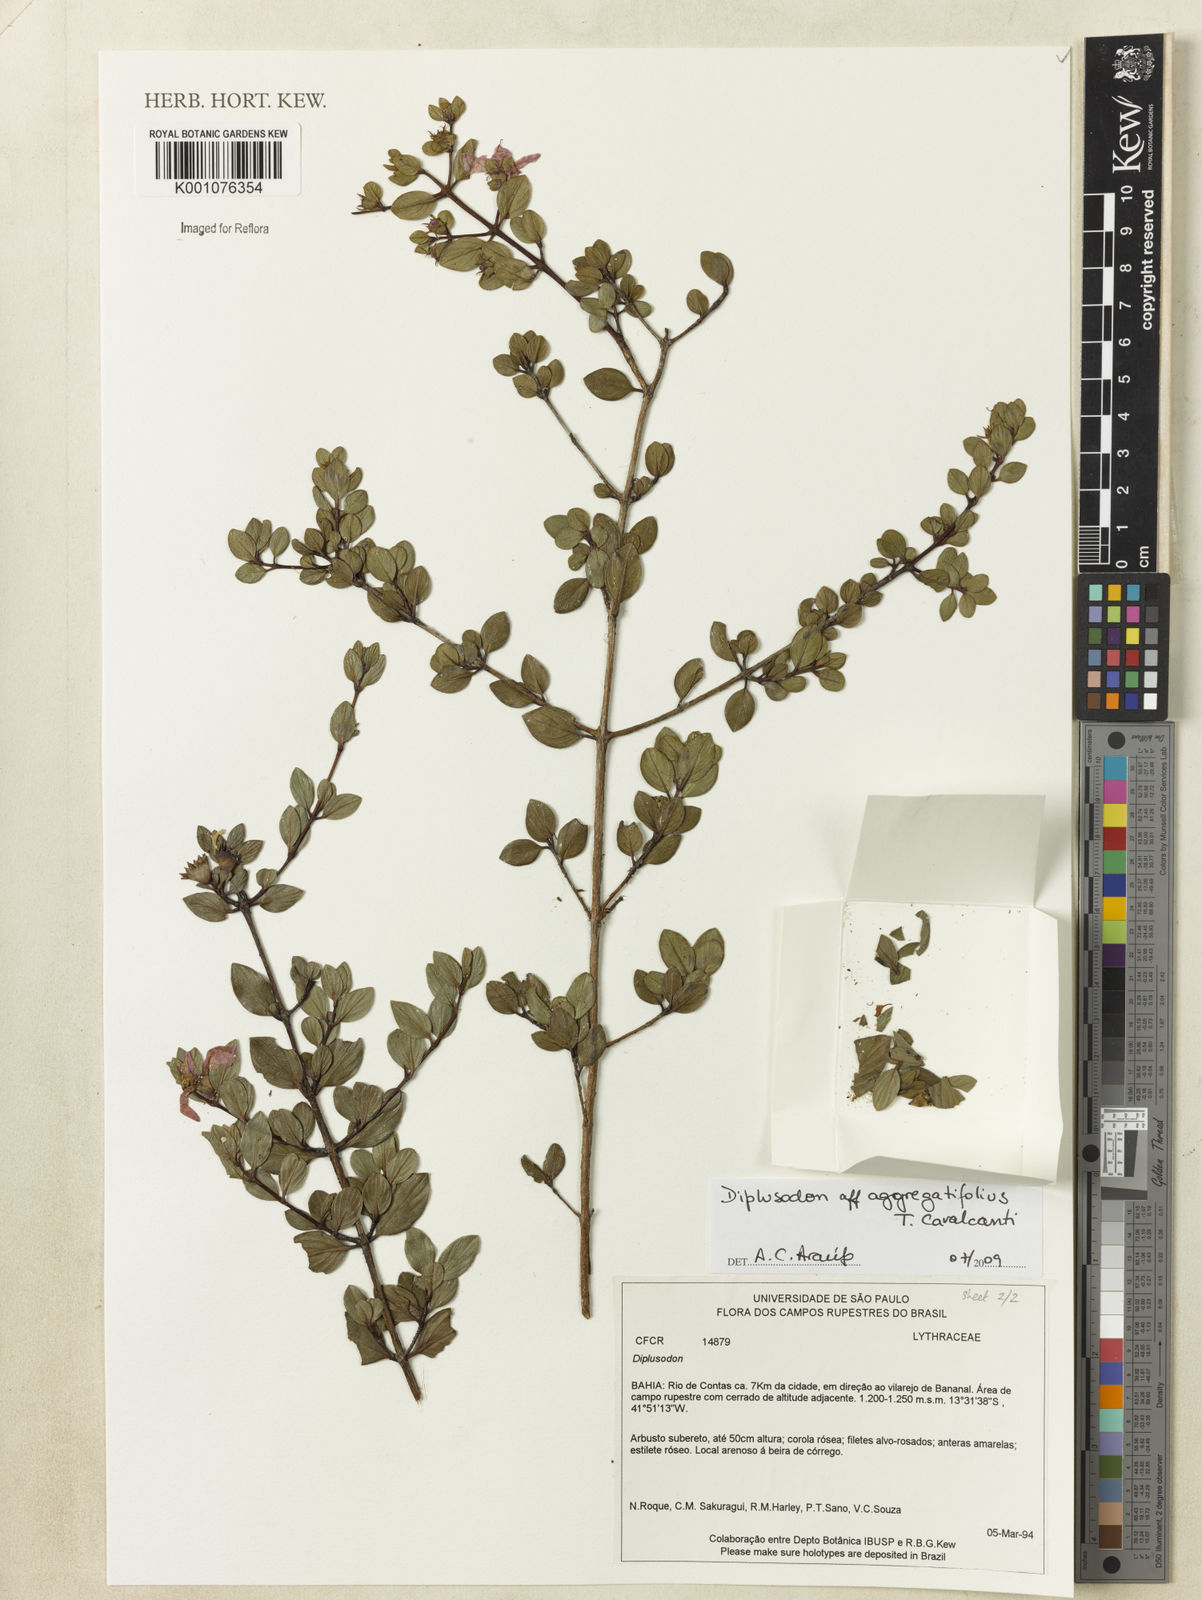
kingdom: Plantae
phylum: Tracheophyta
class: Magnoliopsida
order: Myrtales
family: Lythraceae
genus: Diplusodon
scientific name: Diplusodon aggregatifolius
